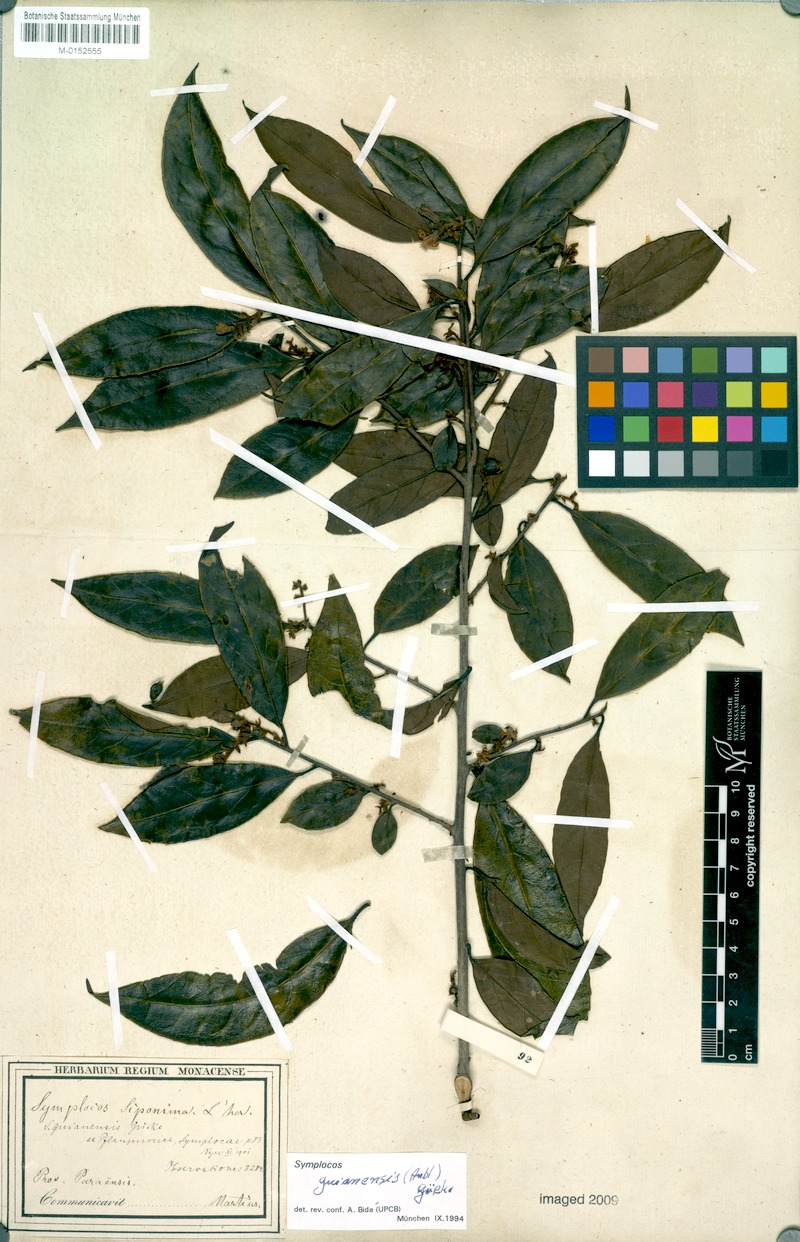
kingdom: Plantae
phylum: Tracheophyta
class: Magnoliopsida
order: Ericales
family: Symplocaceae
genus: Symplocos
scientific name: Symplocos guianensis
